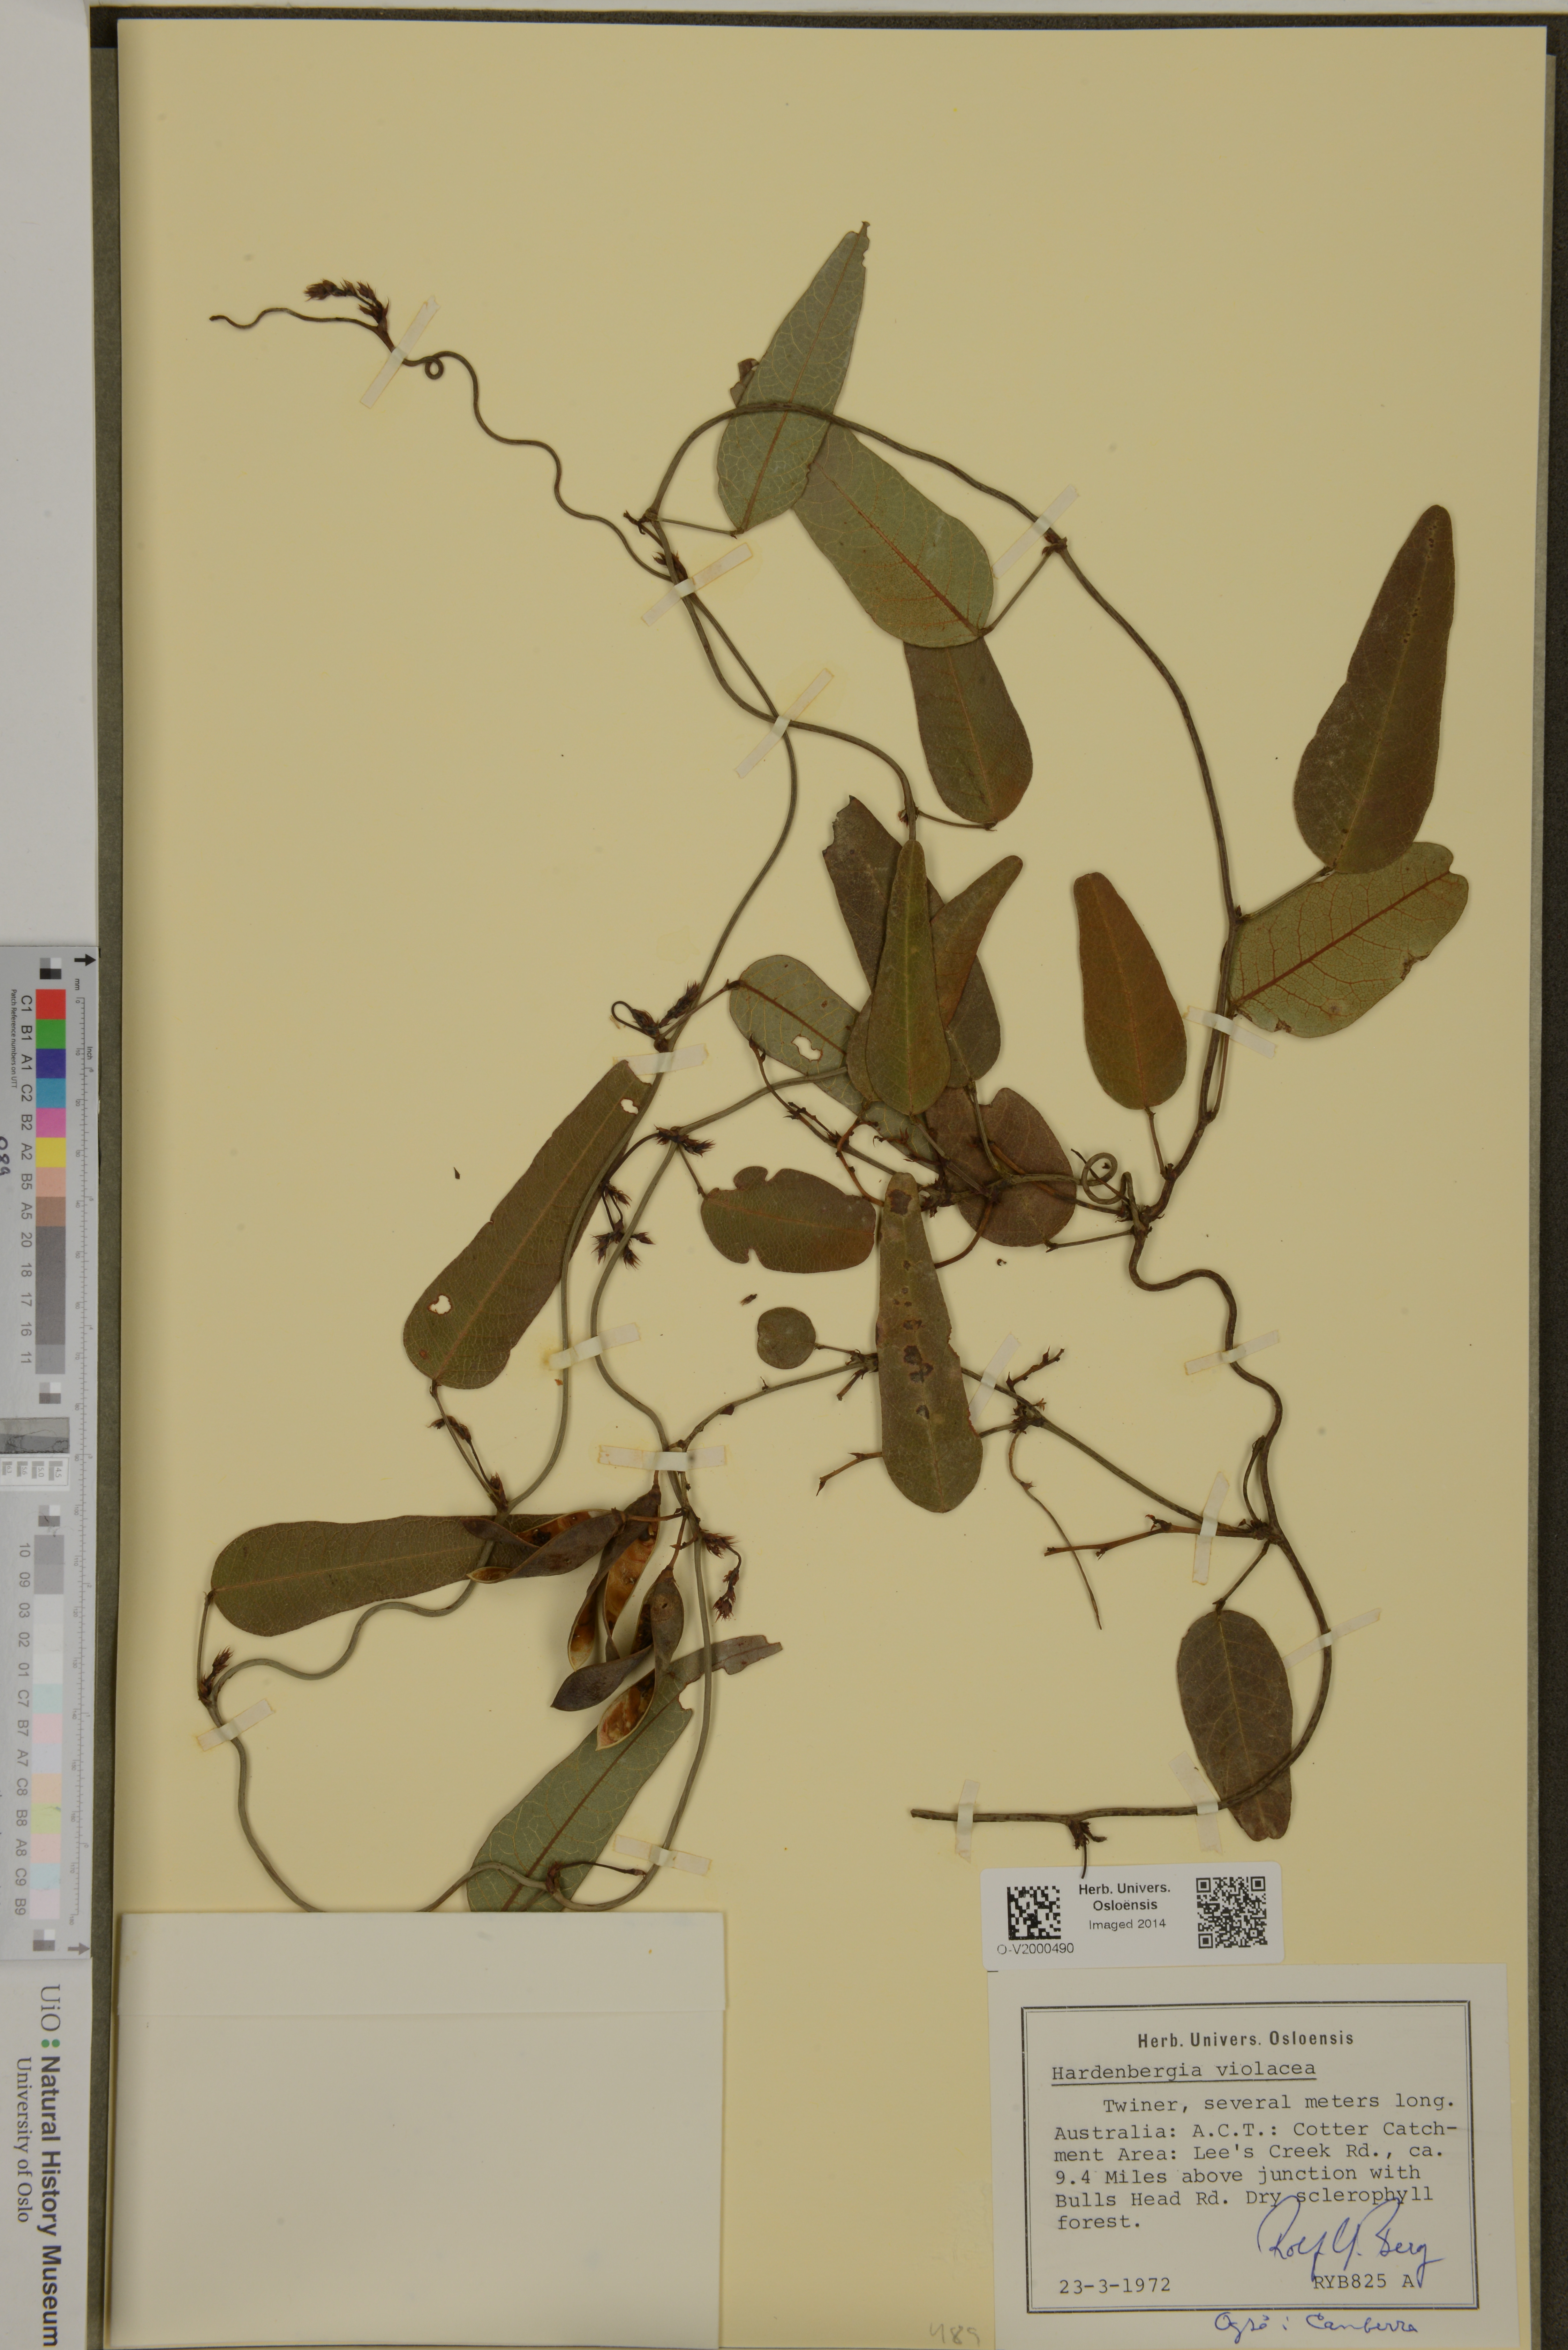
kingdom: Plantae
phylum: Tracheophyta
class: Magnoliopsida
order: Fabales
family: Fabaceae
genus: Hardenbergia
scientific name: Hardenbergia violacea
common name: Coral-pea
